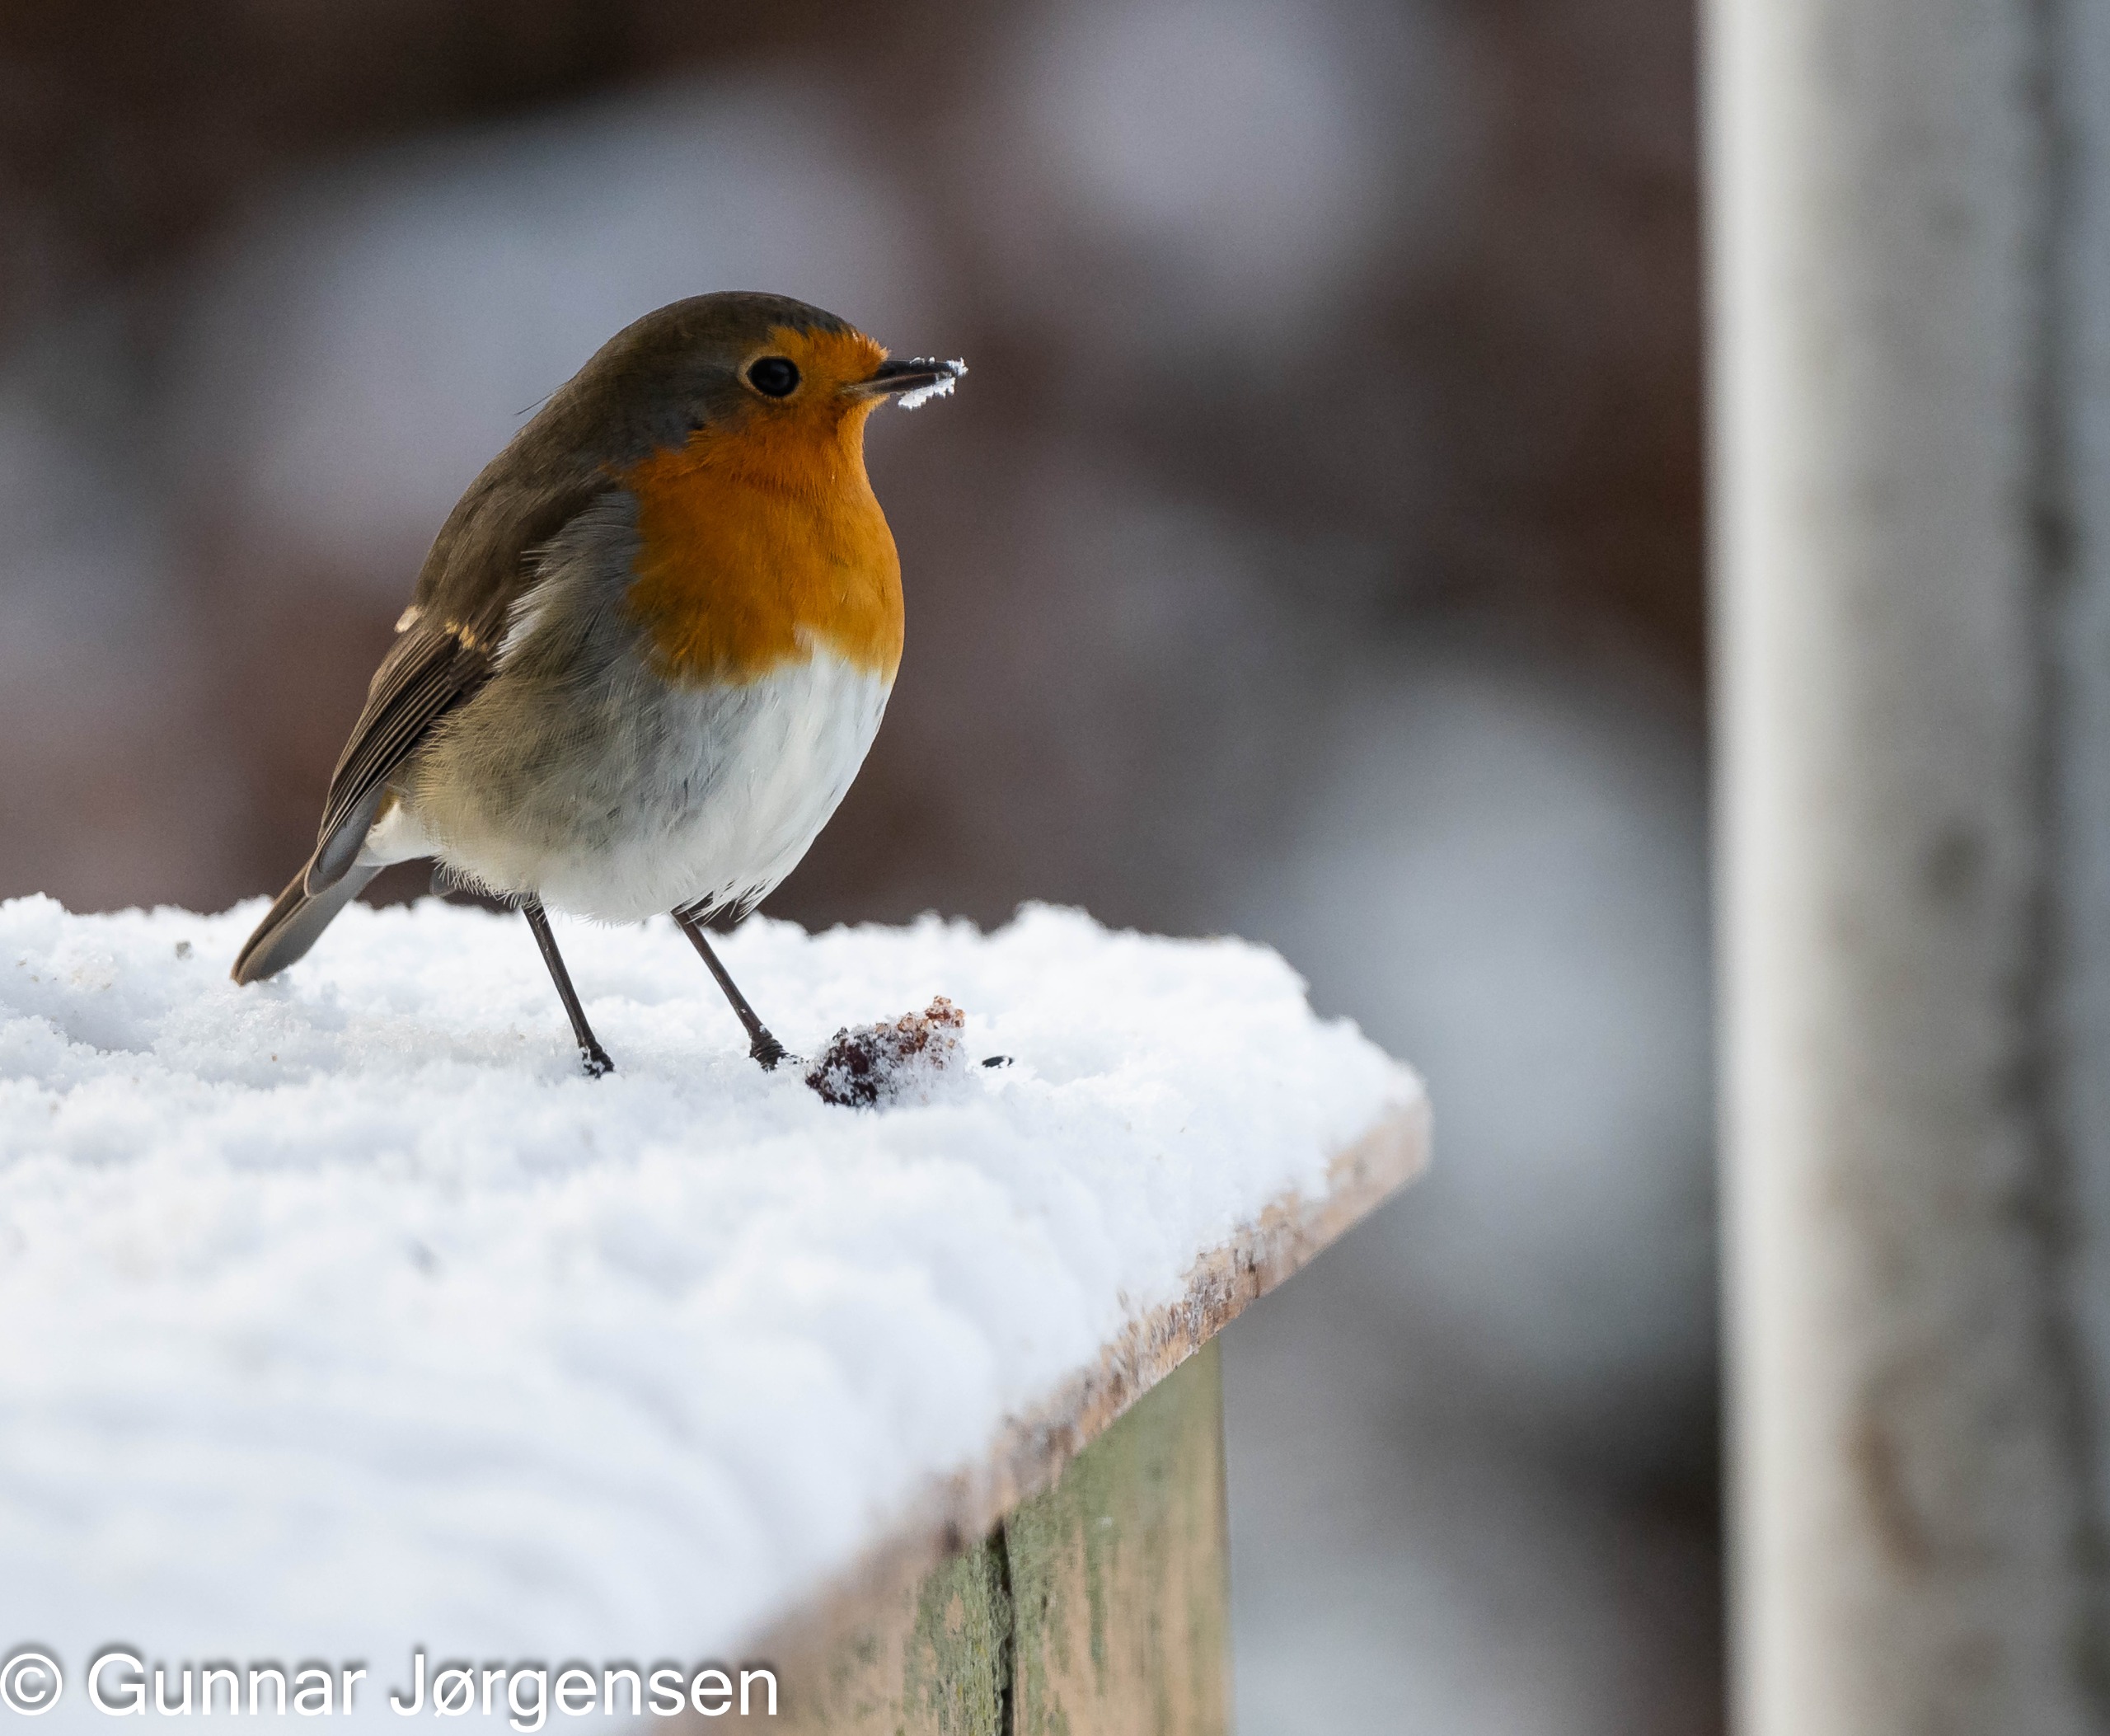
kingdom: Animalia
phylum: Chordata
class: Aves
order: Passeriformes
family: Muscicapidae
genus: Erithacus
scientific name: Erithacus rubecula
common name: Rødhals/rødkælk
